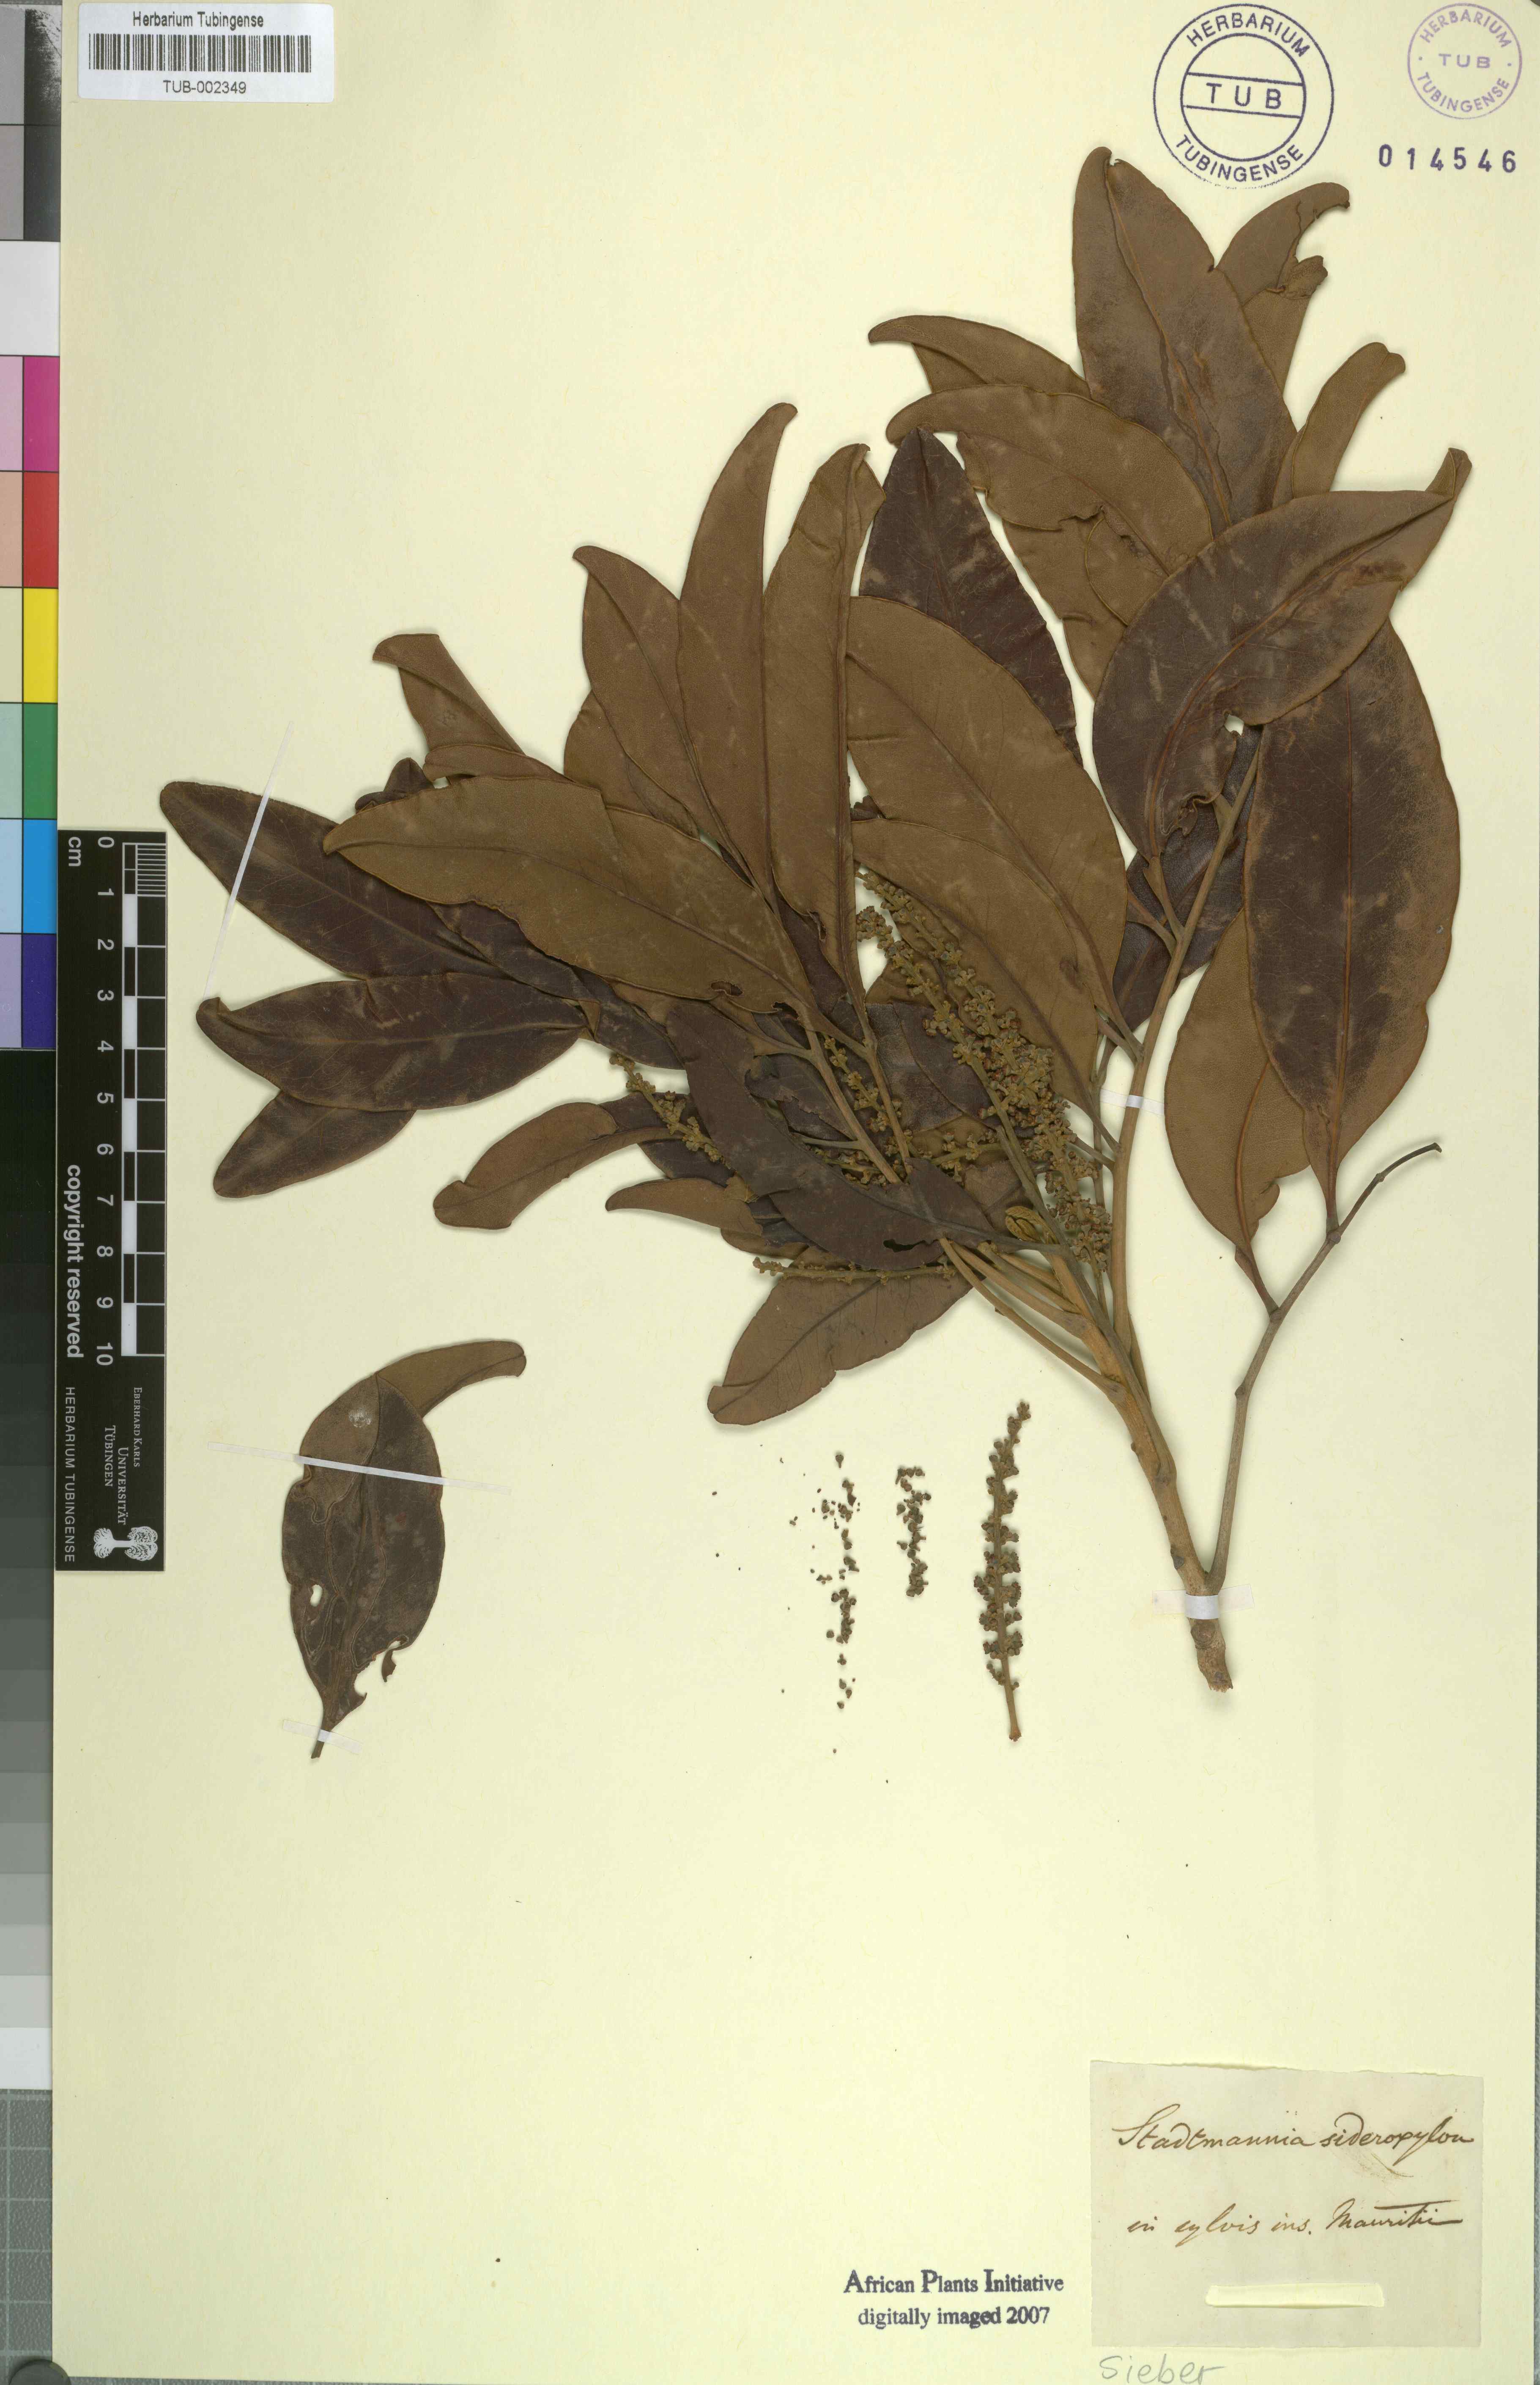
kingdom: Plantae
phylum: Tracheophyta
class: Magnoliopsida
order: Sapindales
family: Sapindaceae
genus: Stadmannia
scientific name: Stadmannia oppositifolia
